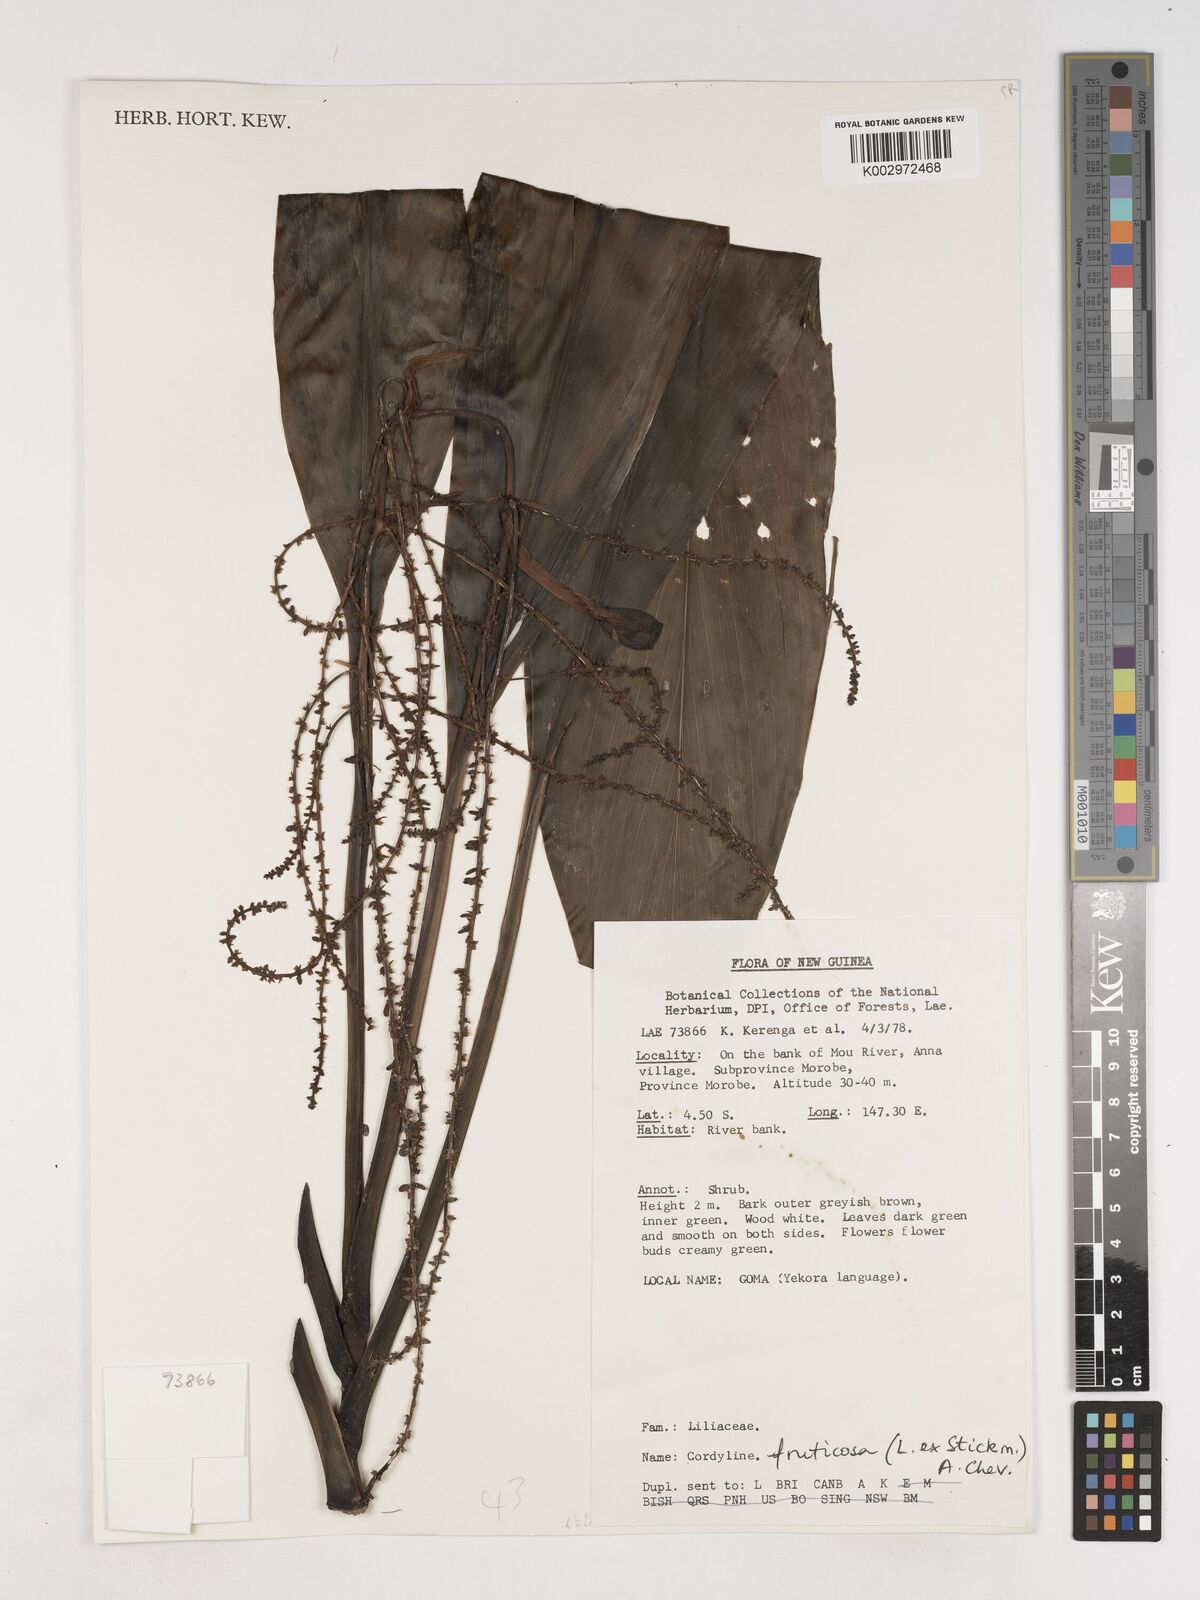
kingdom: Plantae
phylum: Tracheophyta
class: Liliopsida
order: Asparagales
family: Asparagaceae
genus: Cordyline
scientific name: Cordyline fruticosa
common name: Good-luck-plant
